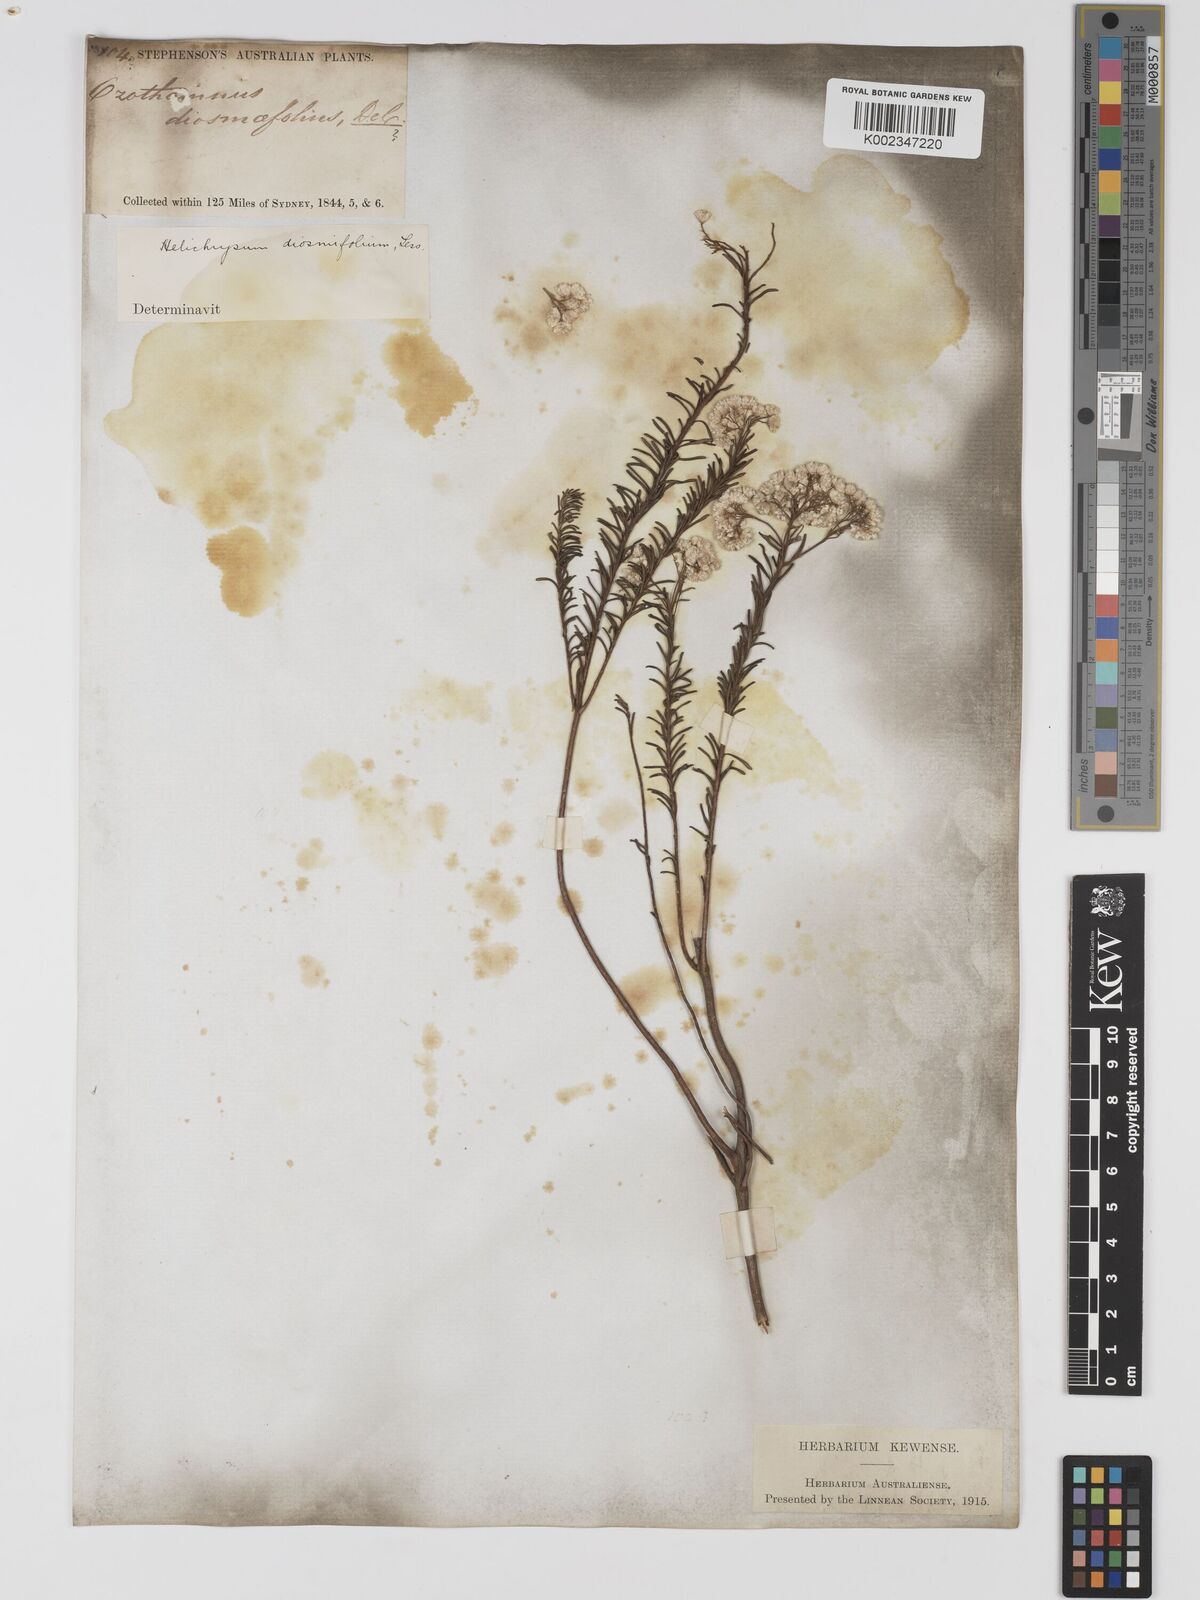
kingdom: Plantae
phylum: Tracheophyta
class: Magnoliopsida
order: Asterales
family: Asteraceae
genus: Ozothamnus
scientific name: Ozothamnus diosmifolius
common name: White-dogwood
